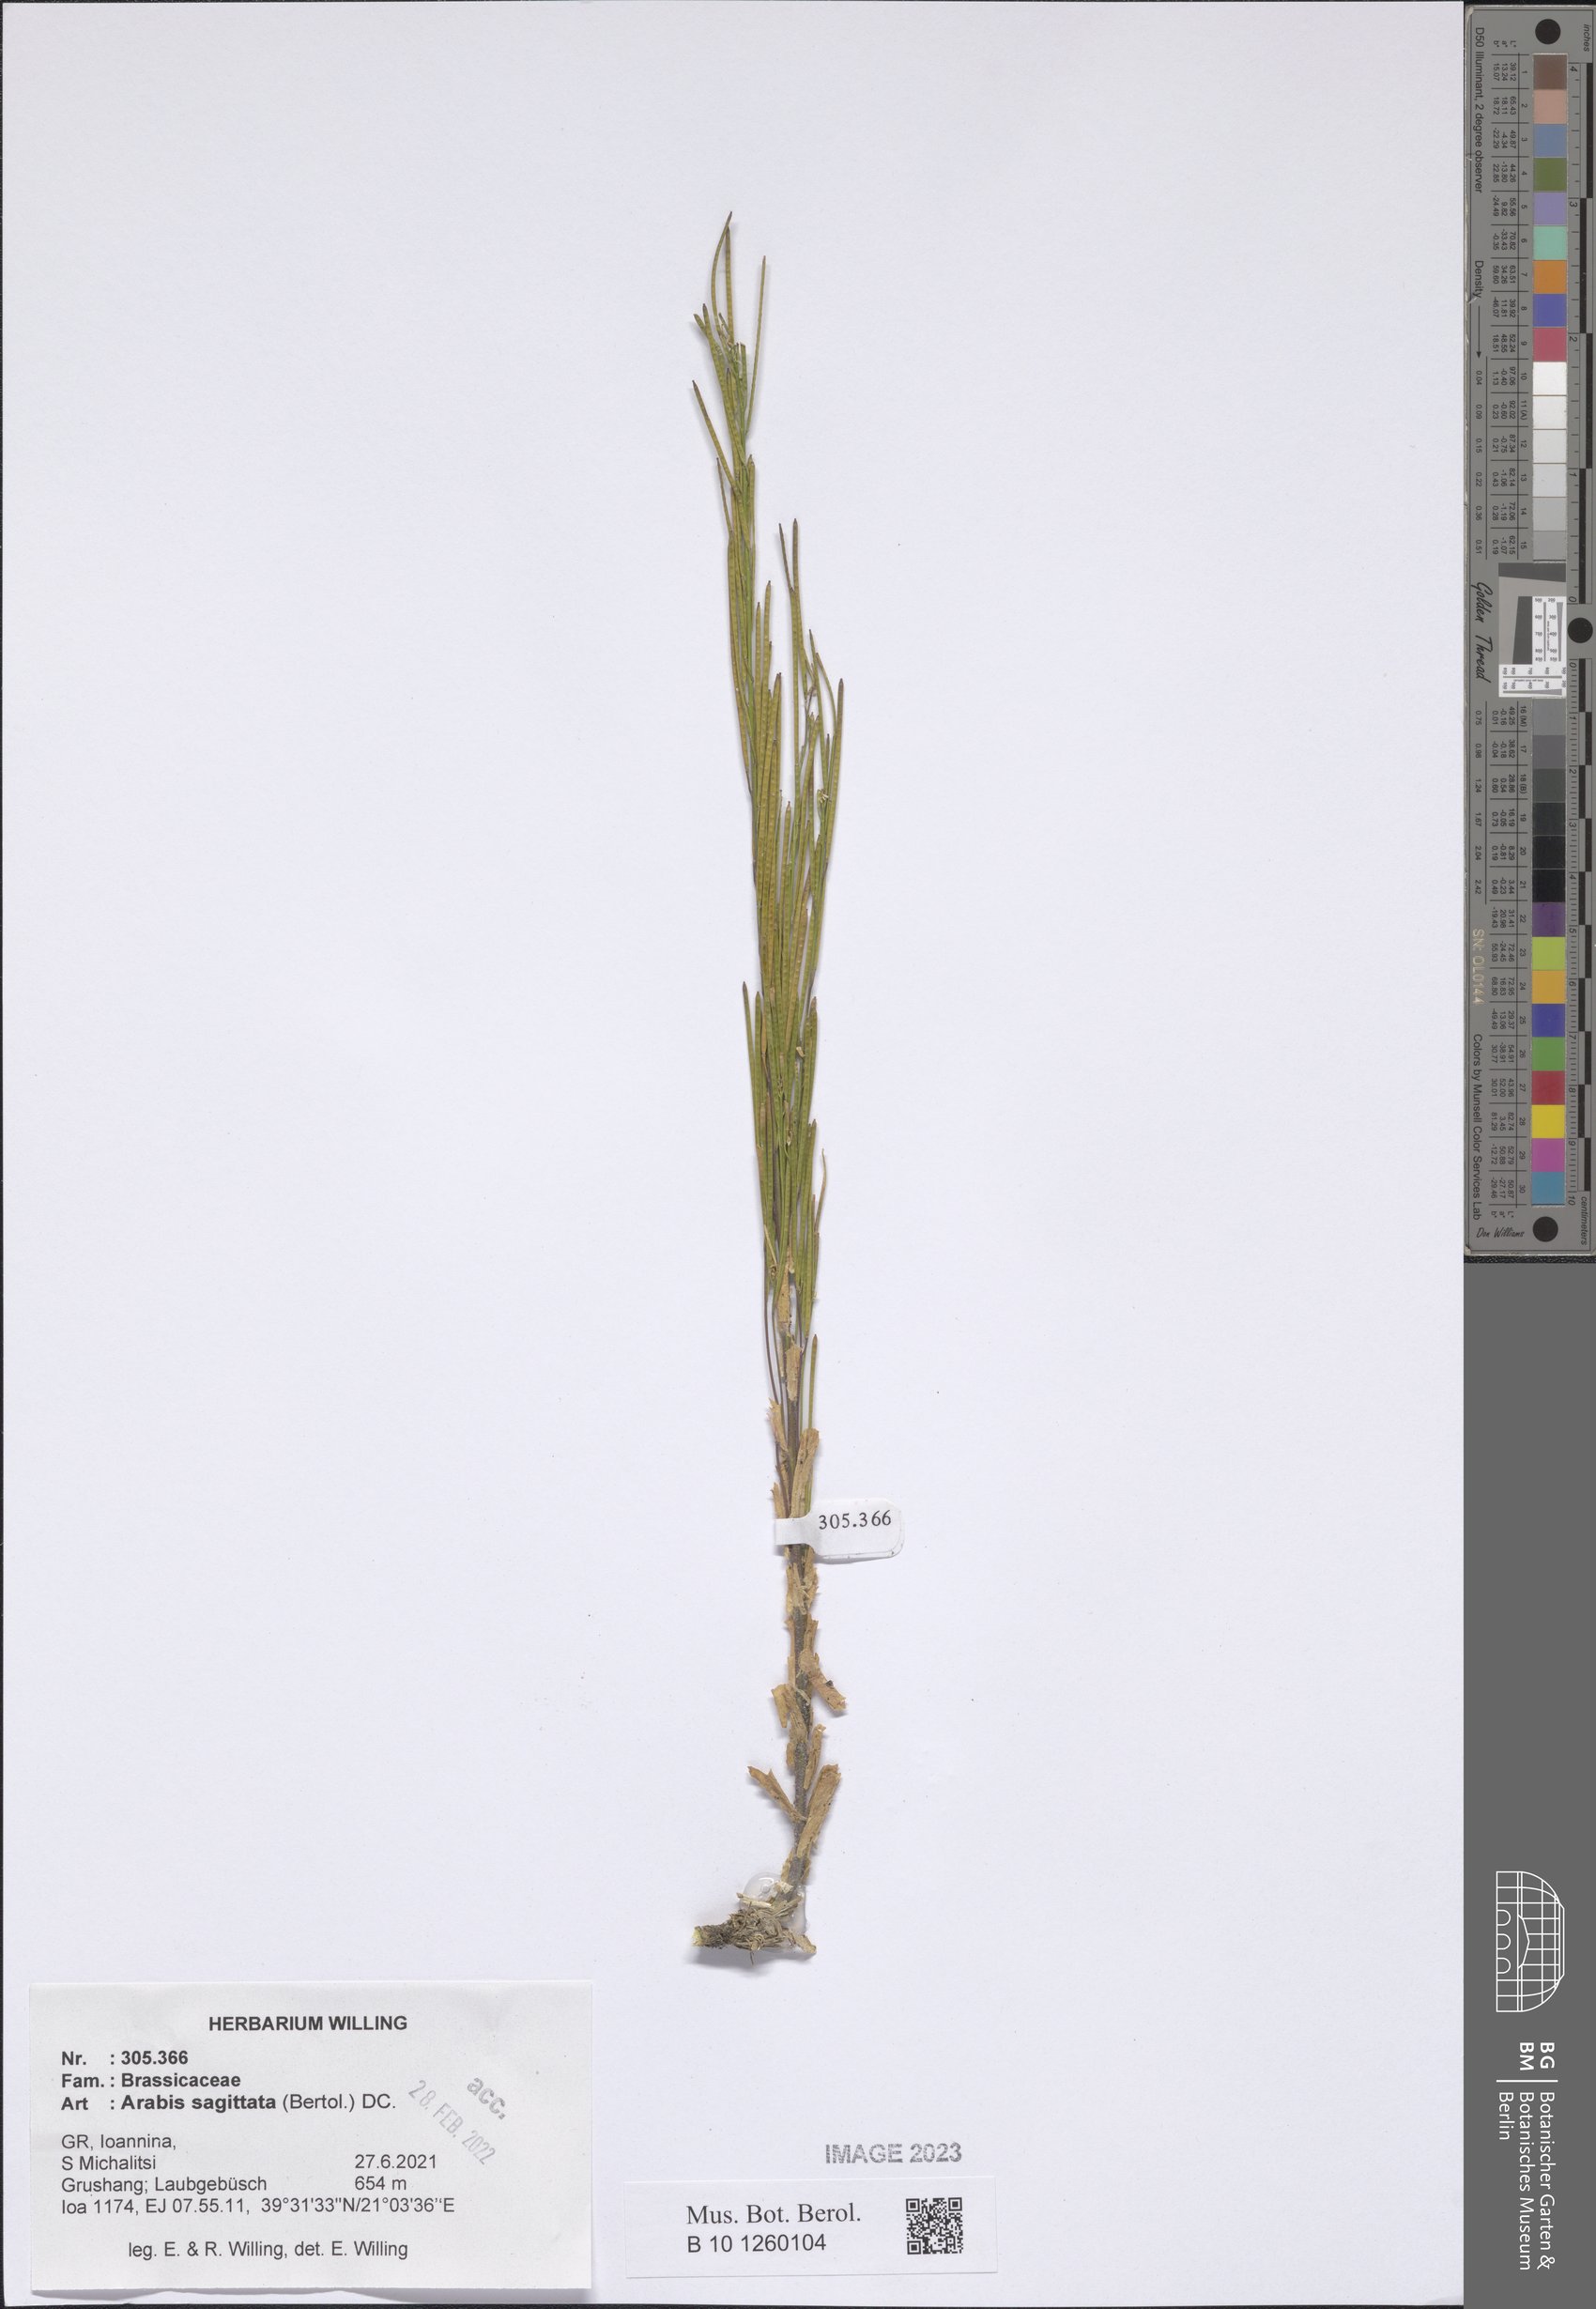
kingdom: Plantae
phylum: Tracheophyta
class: Magnoliopsida
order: Brassicales
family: Brassicaceae
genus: Arabis
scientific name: Arabis sagittata
